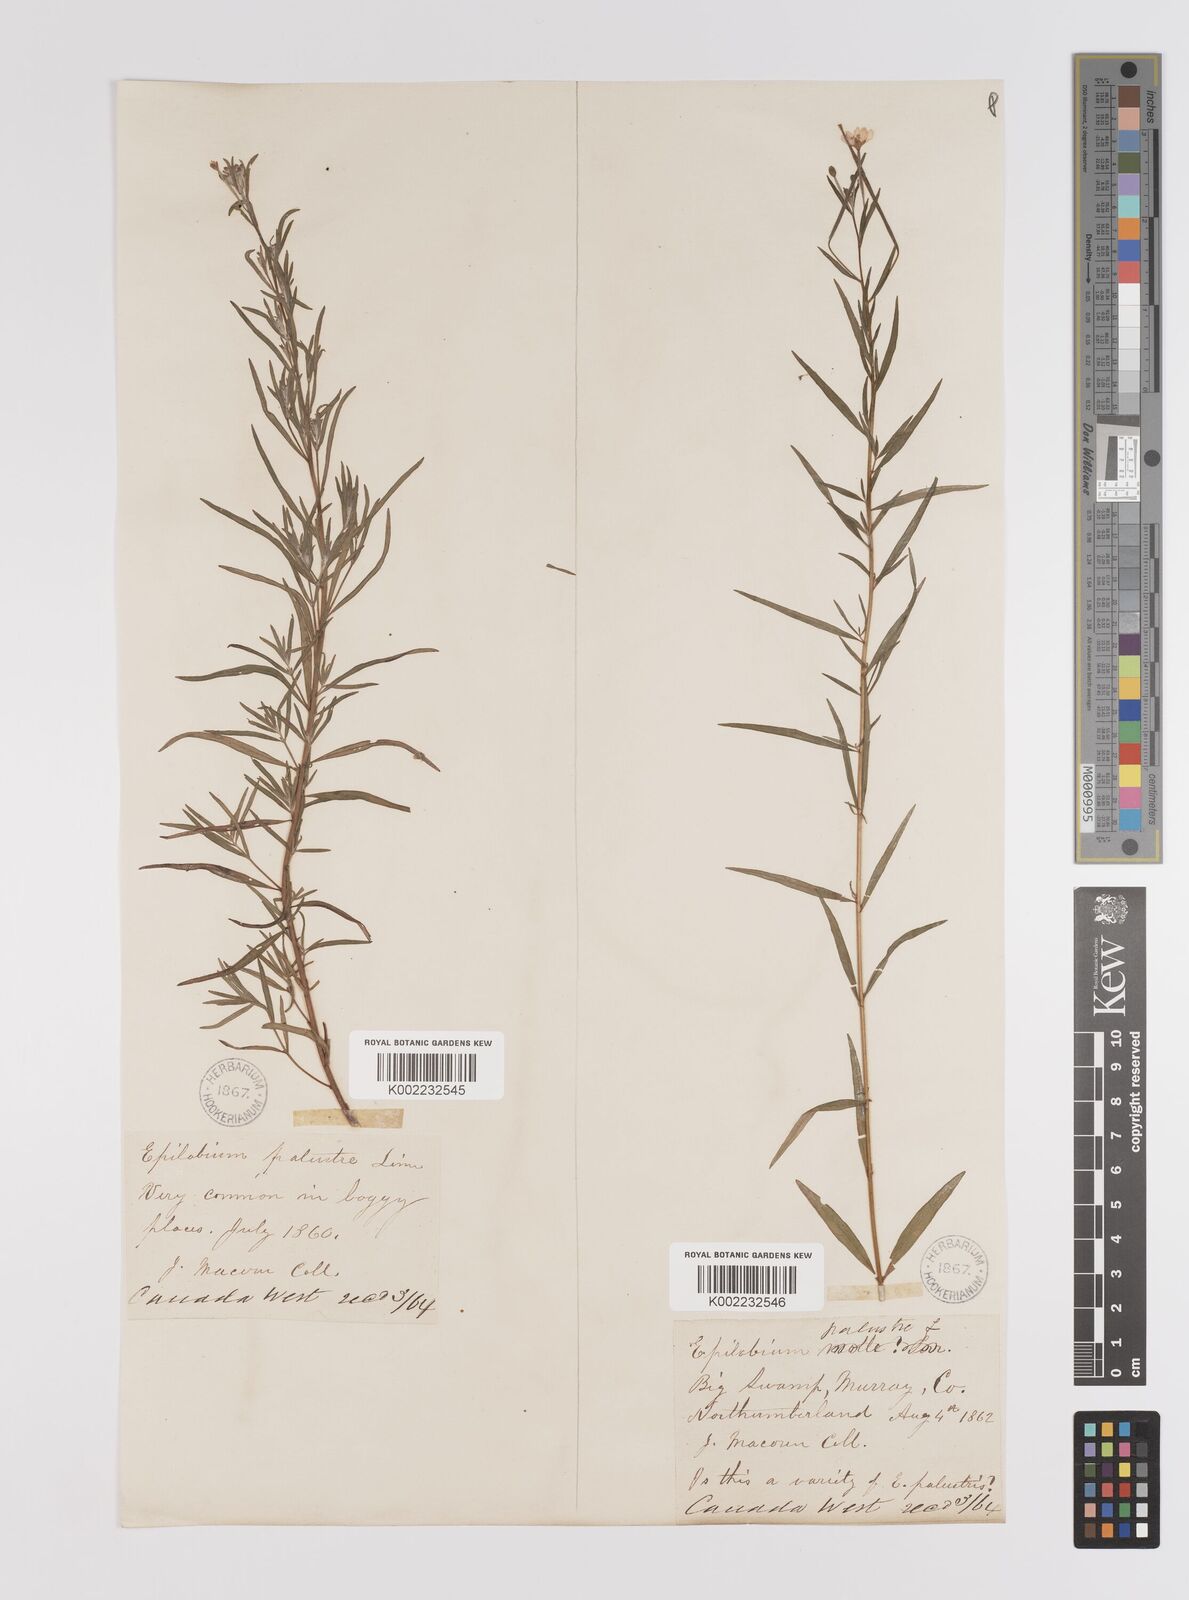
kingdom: Plantae
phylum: Tracheophyta
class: Magnoliopsida
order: Myrtales
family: Onagraceae
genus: Epilobium
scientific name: Epilobium palustre
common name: Marsh willowherb
